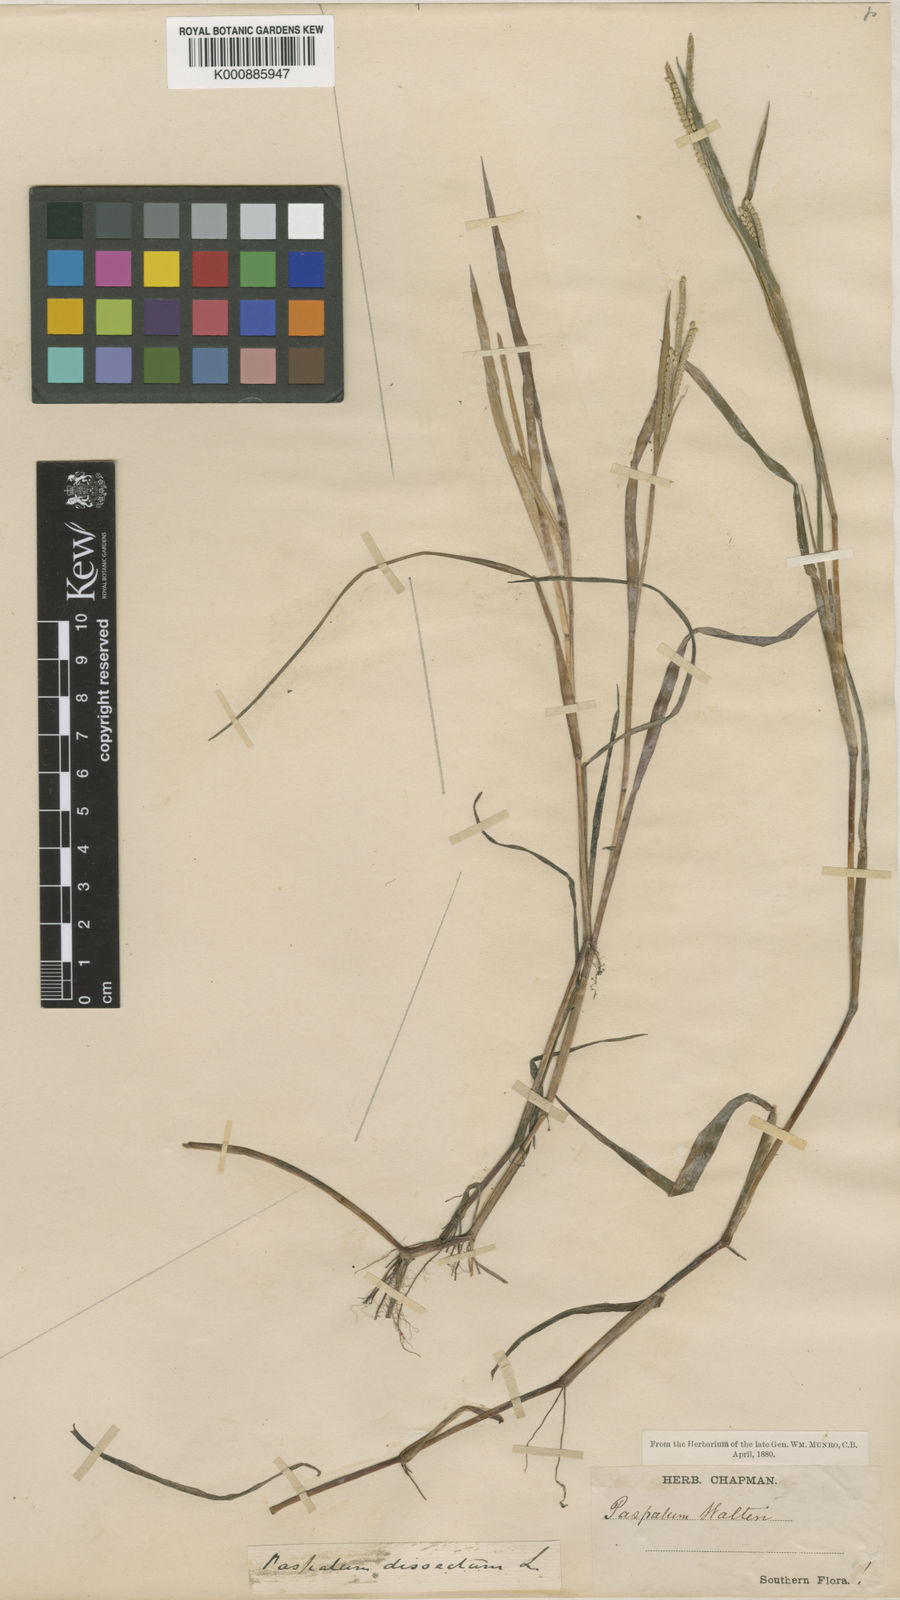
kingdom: Plantae
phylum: Tracheophyta
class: Liliopsida
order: Poales
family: Poaceae
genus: Paspalum
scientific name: Paspalum dissectum
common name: Bead grass
